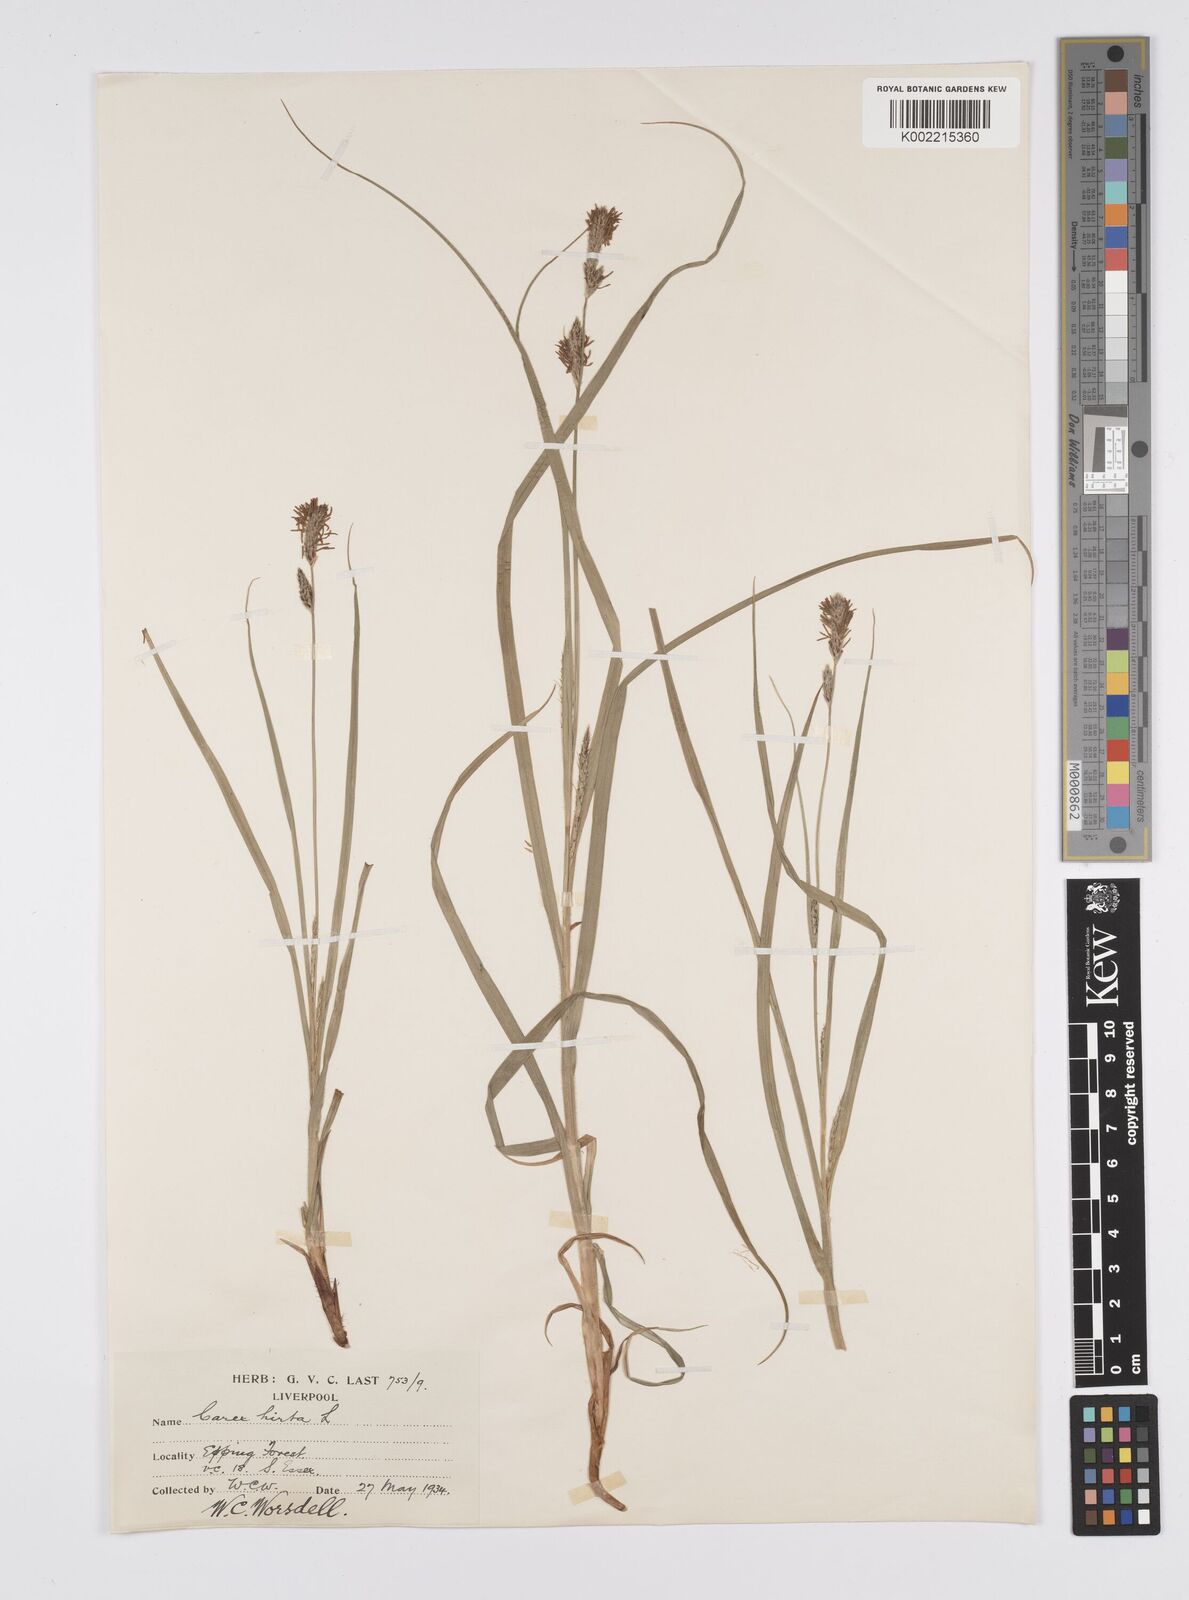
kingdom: Plantae
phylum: Tracheophyta
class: Liliopsida
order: Poales
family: Cyperaceae
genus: Carex
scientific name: Carex hirta
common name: Hairy sedge
